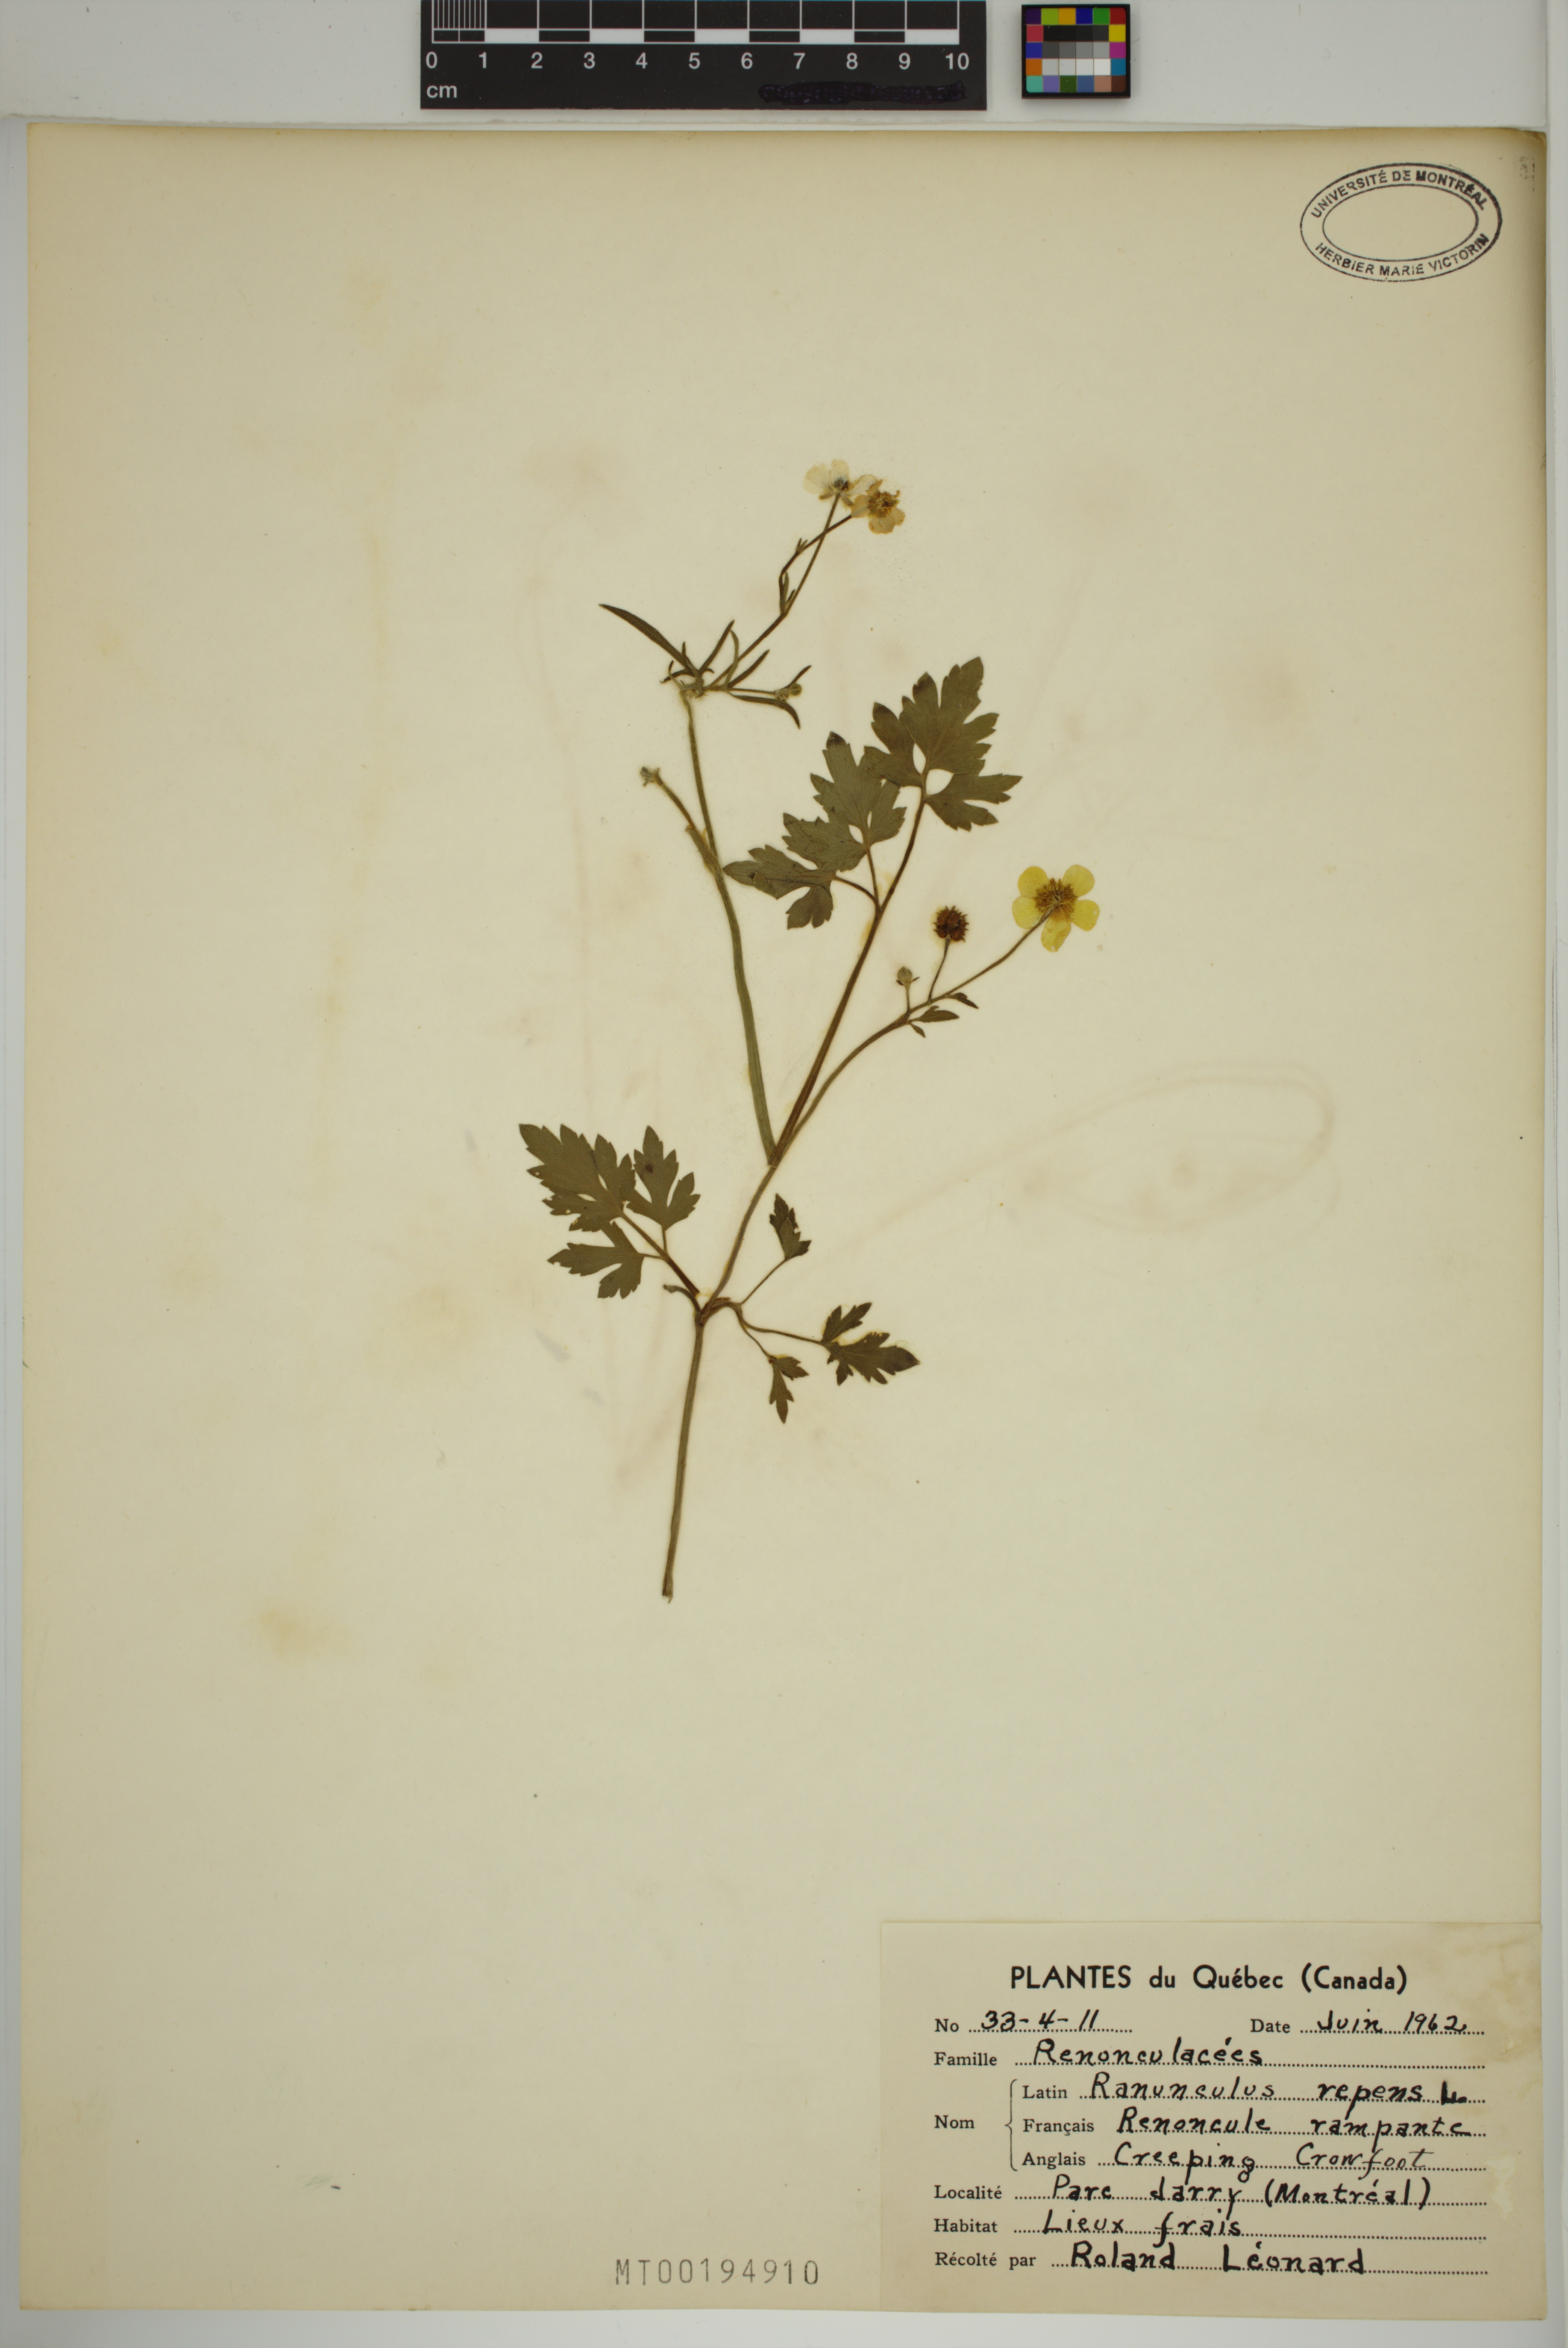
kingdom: Plantae
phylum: Tracheophyta
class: Magnoliopsida
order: Ranunculales
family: Ranunculaceae
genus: Ranunculus
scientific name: Ranunculus repens
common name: Creeping buttercup
